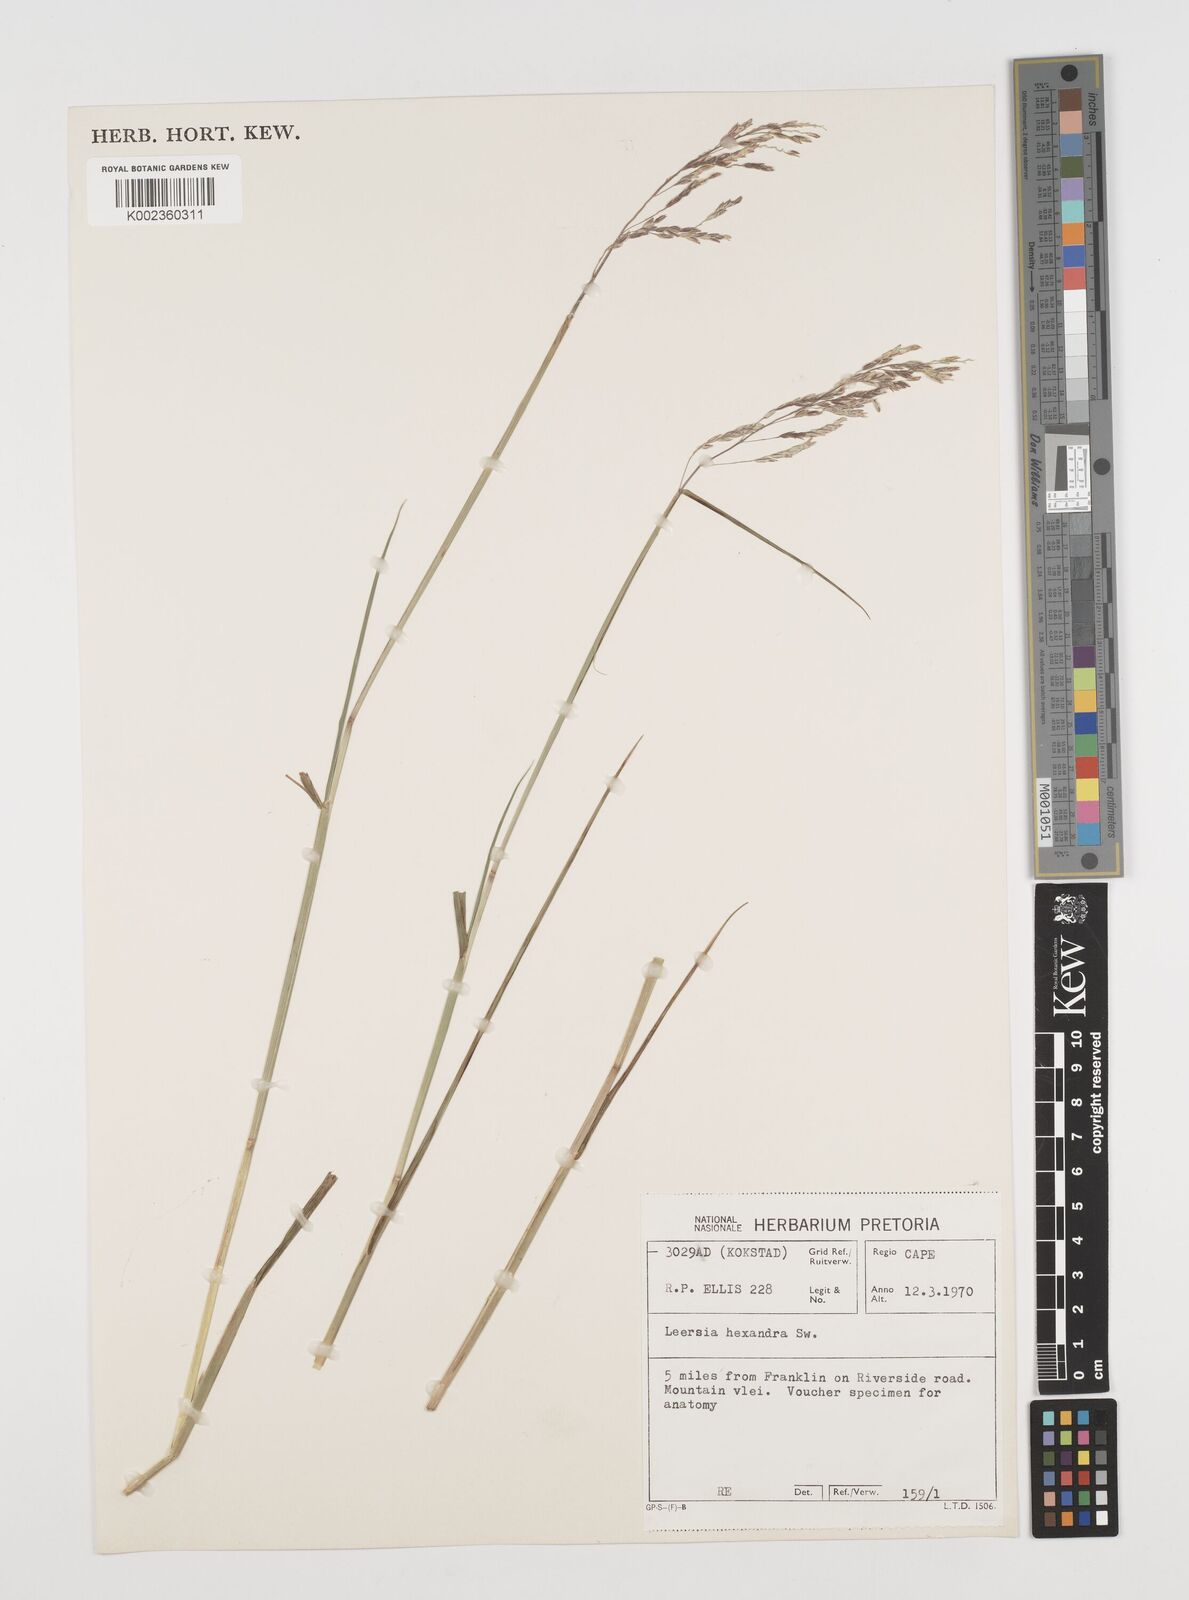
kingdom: Plantae
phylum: Tracheophyta
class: Liliopsida
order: Poales
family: Poaceae
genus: Leersia
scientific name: Leersia hexandra
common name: Southern cut grass
